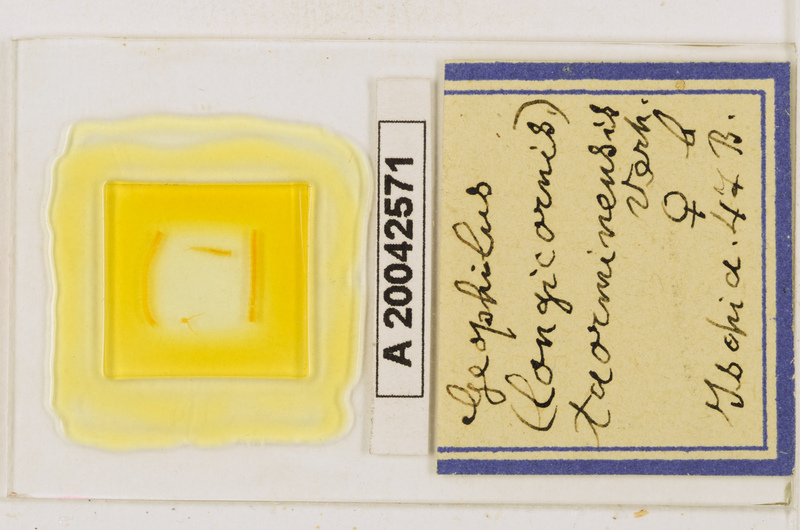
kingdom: Animalia
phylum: Arthropoda
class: Chilopoda
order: Geophilomorpha
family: Geophilidae
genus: Geophilus
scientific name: Geophilus osquidatum
